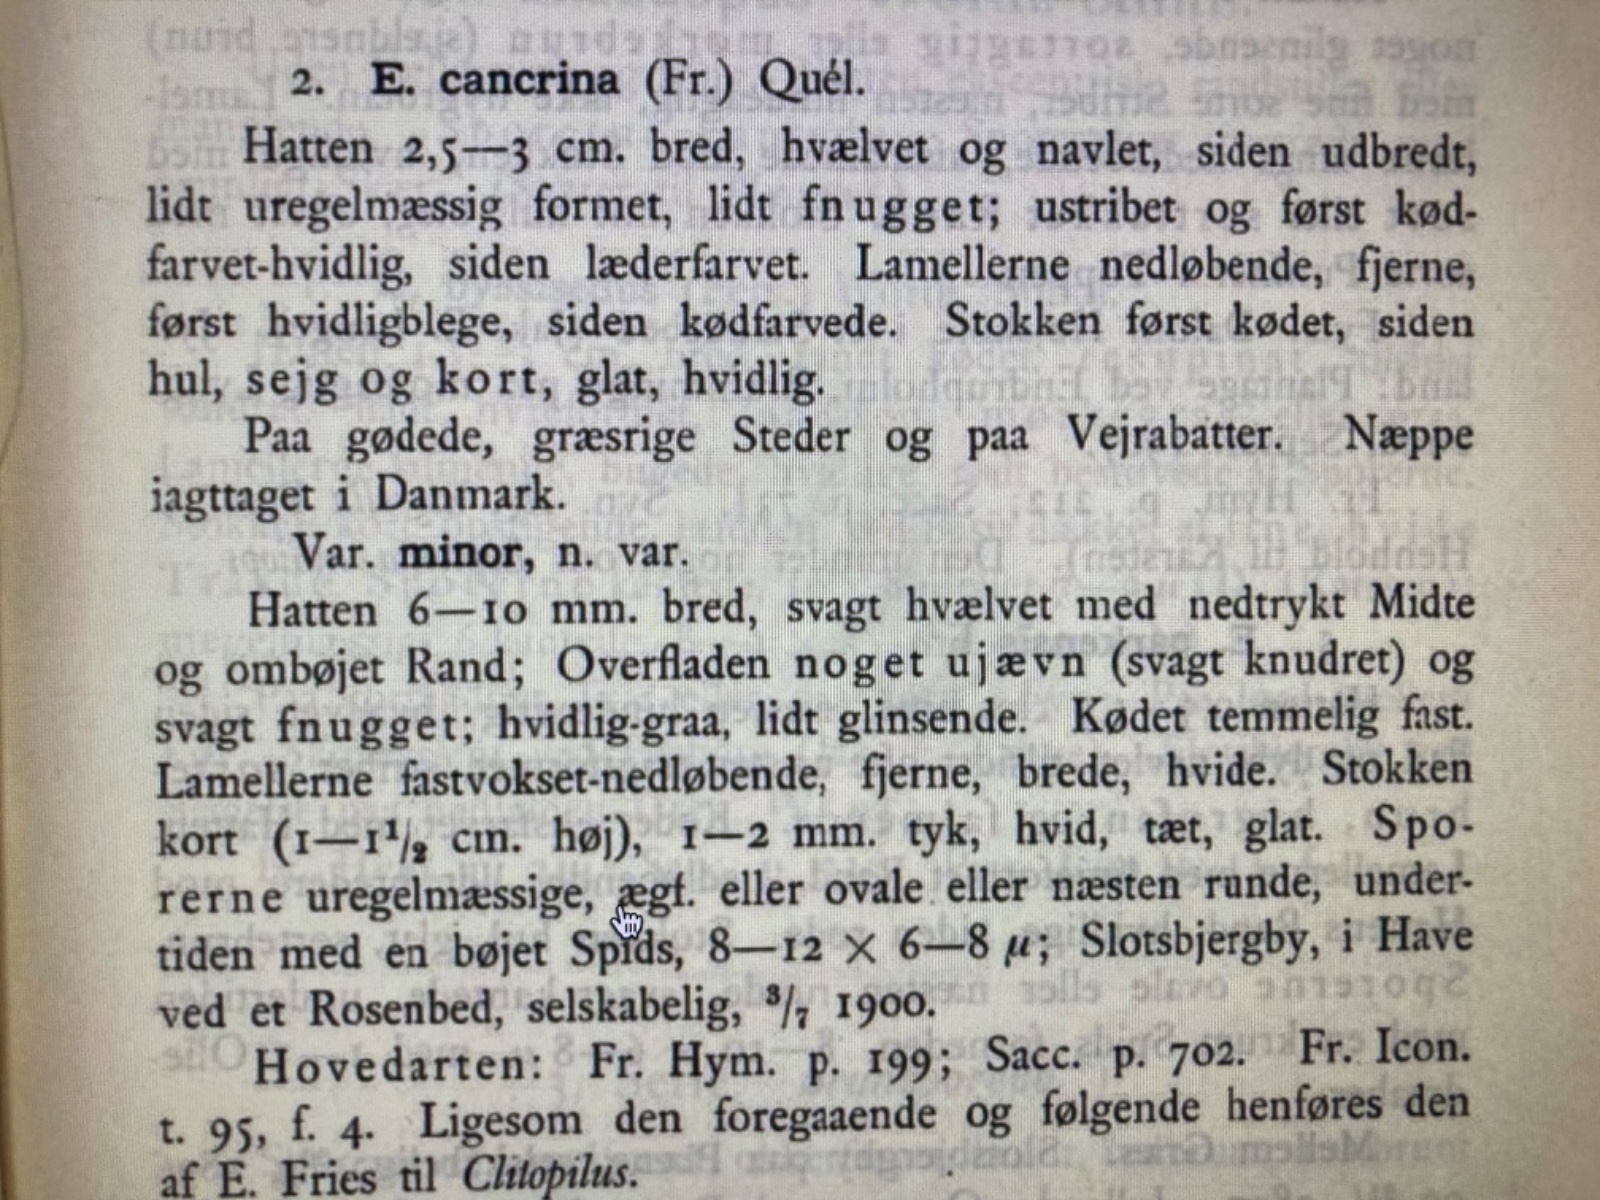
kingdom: Fungi
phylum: Basidiomycota
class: Agaricomycetes
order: Agaricales
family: Entolomataceae
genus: Entoloma
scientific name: Entoloma neglectum
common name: bleg rødblad
